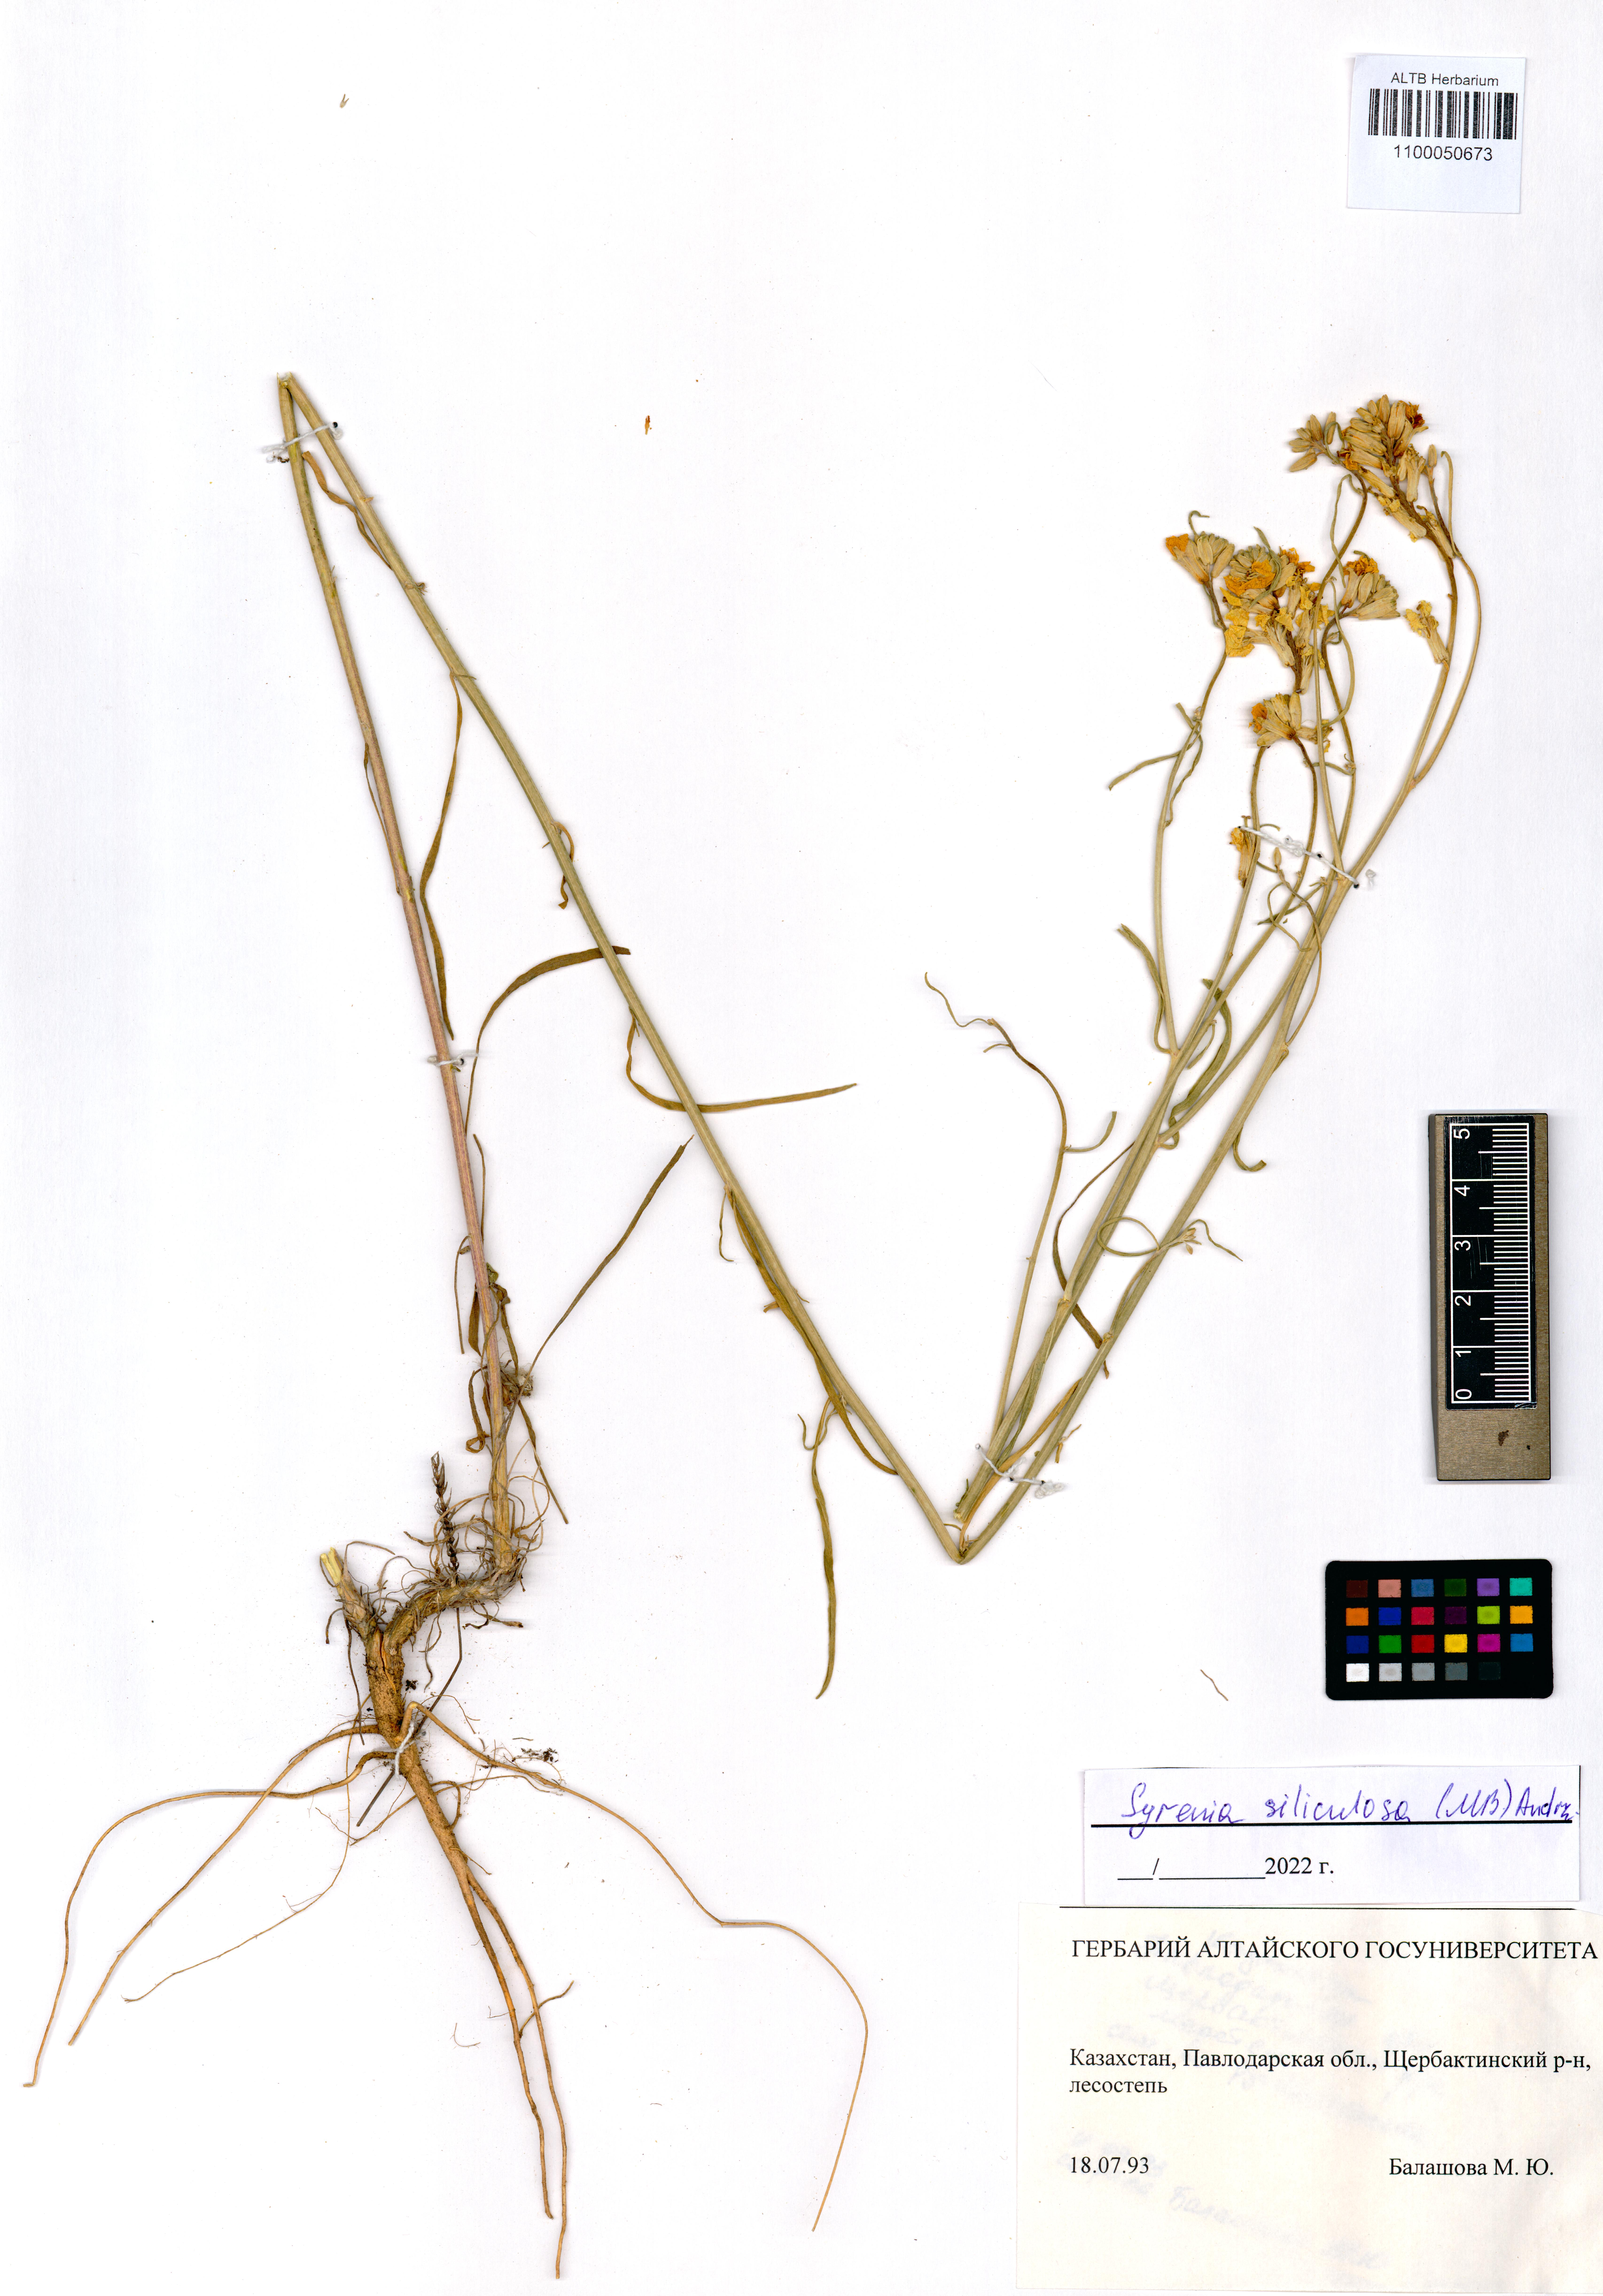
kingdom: Plantae
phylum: Tracheophyta
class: Magnoliopsida
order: Brassicales
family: Brassicaceae
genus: Syrenia
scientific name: Syrenia siliculosa
